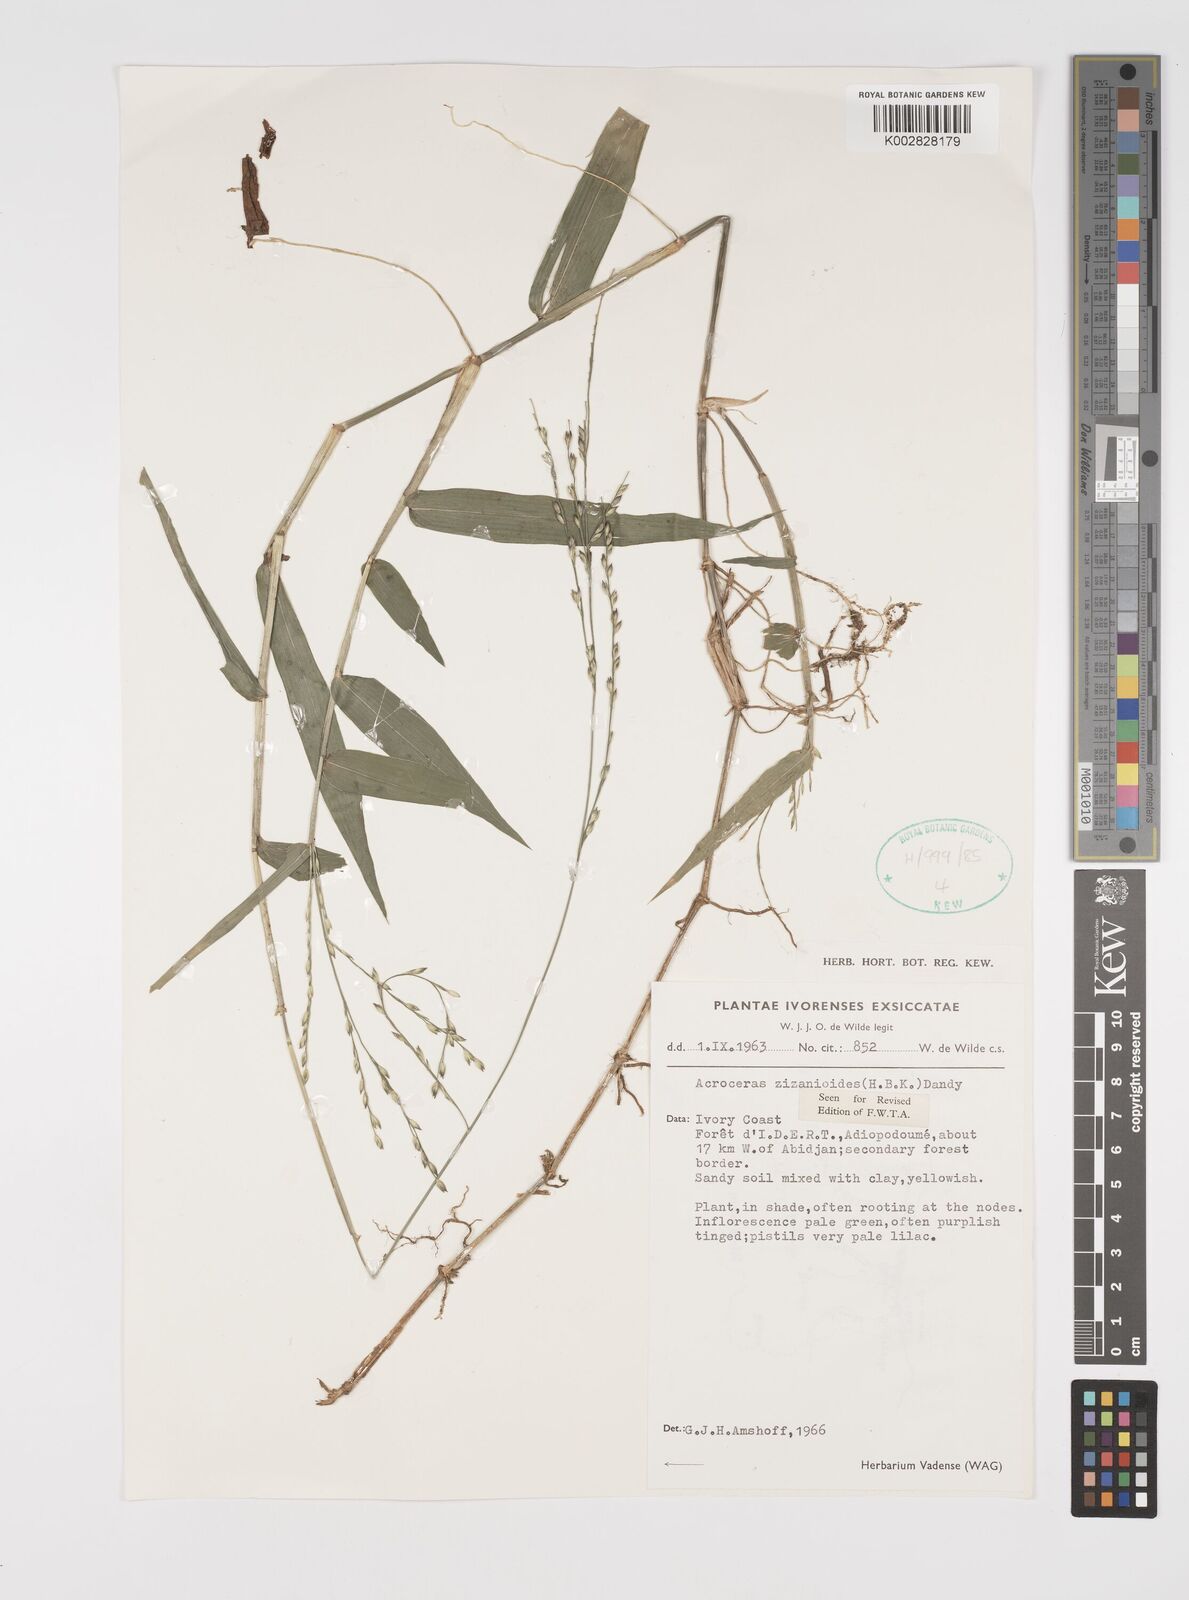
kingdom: Plantae
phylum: Tracheophyta
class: Liliopsida
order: Poales
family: Poaceae
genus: Acroceras
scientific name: Acroceras zizanioides
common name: Oat grass
